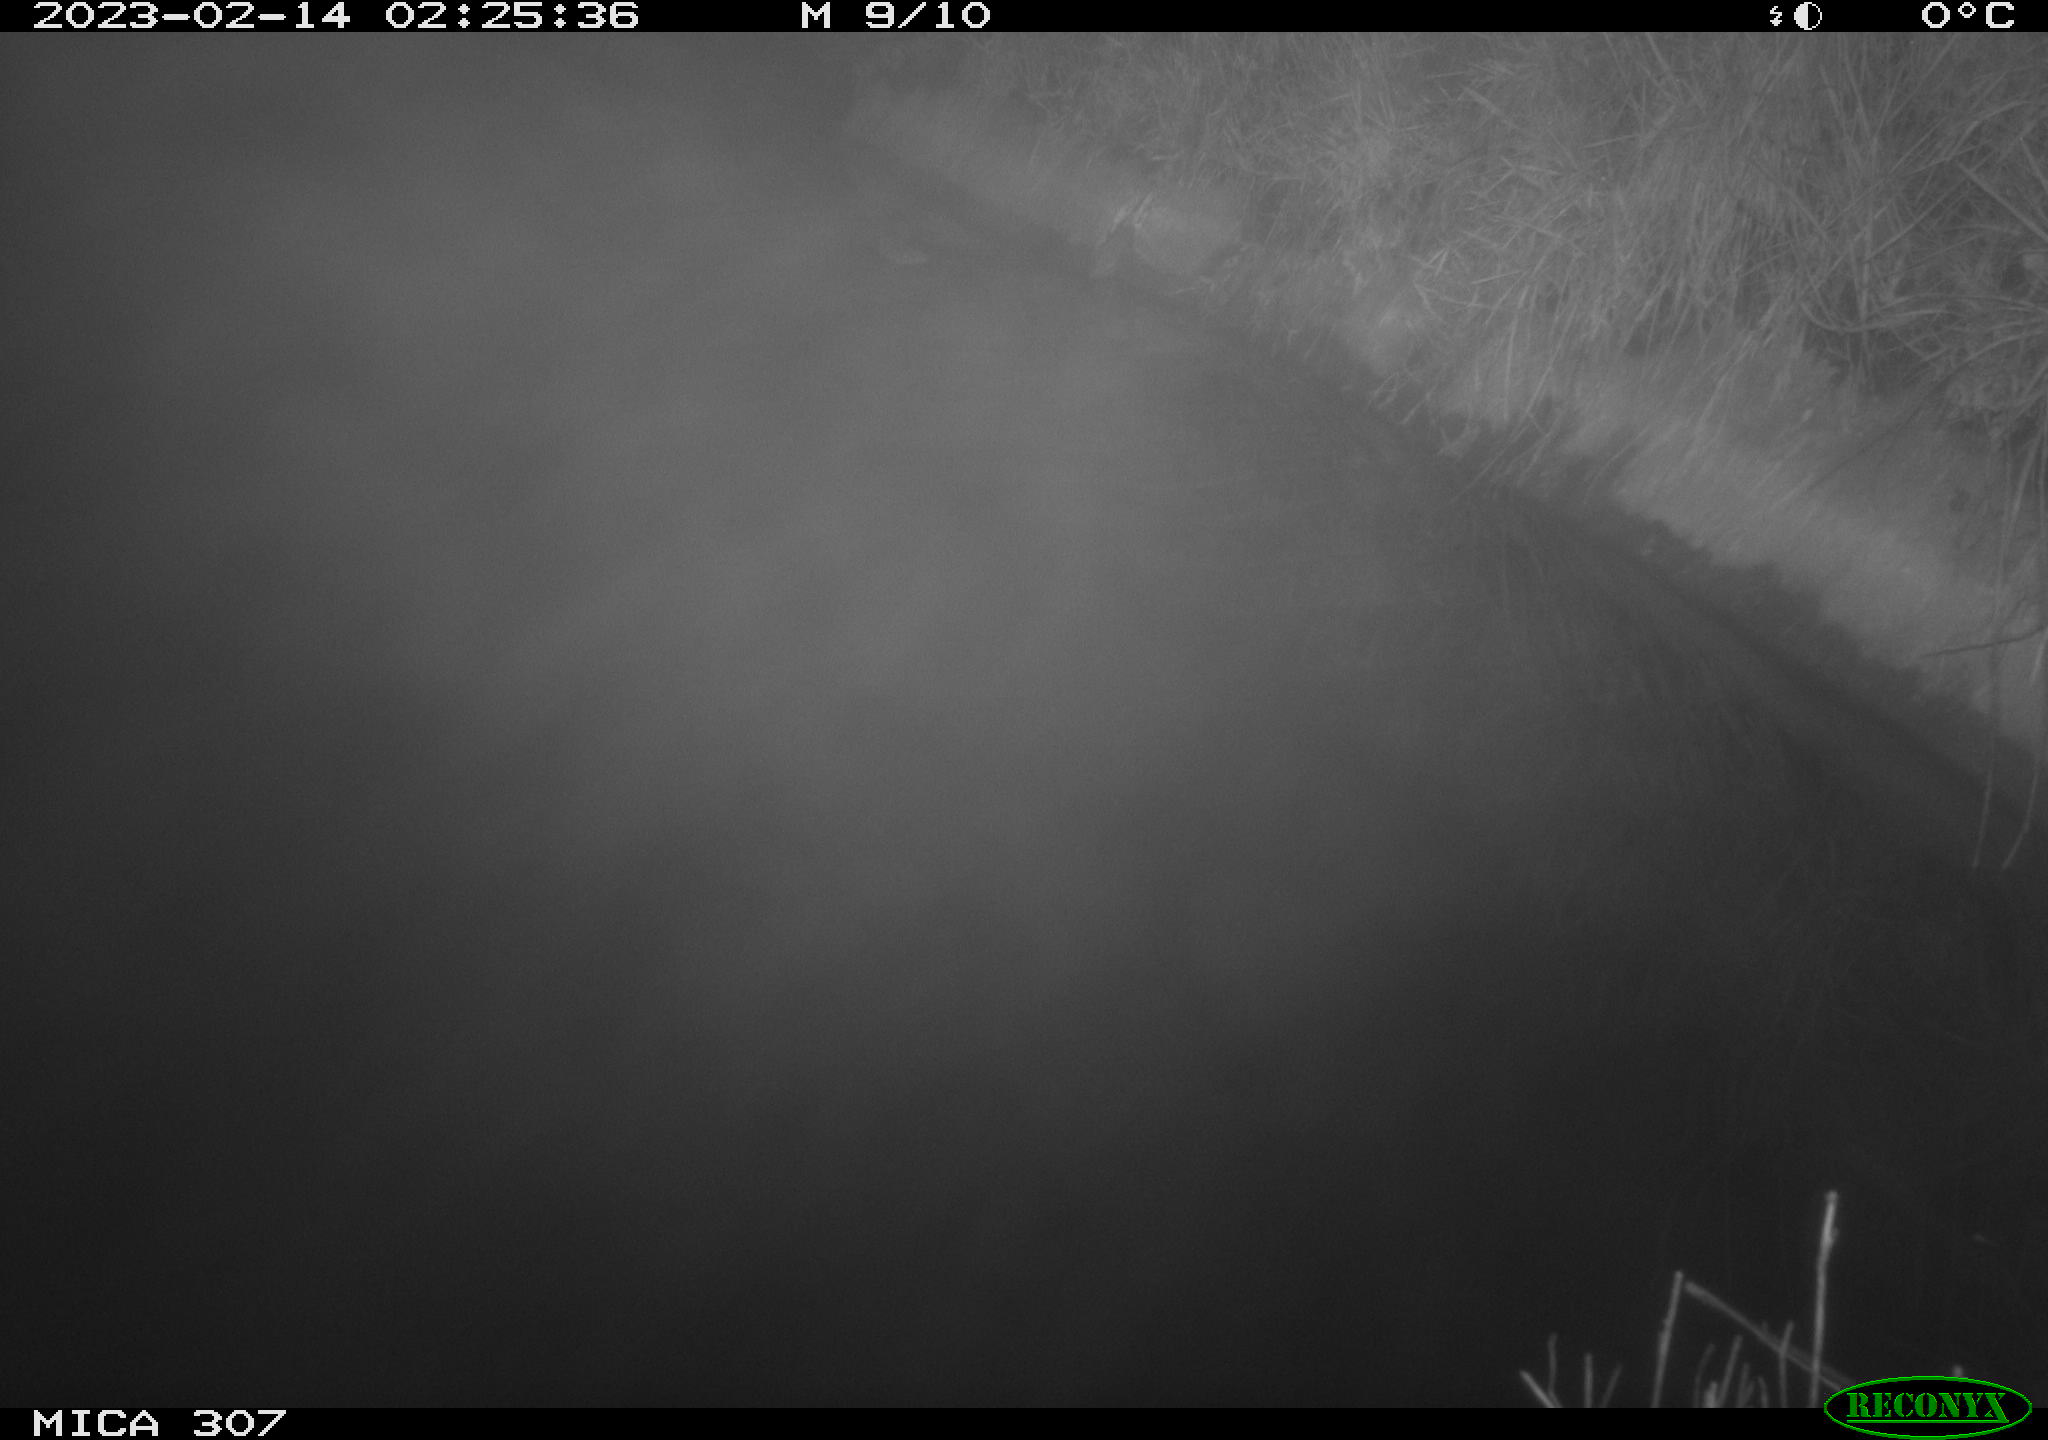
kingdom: Animalia
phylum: Chordata
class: Mammalia
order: Rodentia
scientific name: Rodentia
